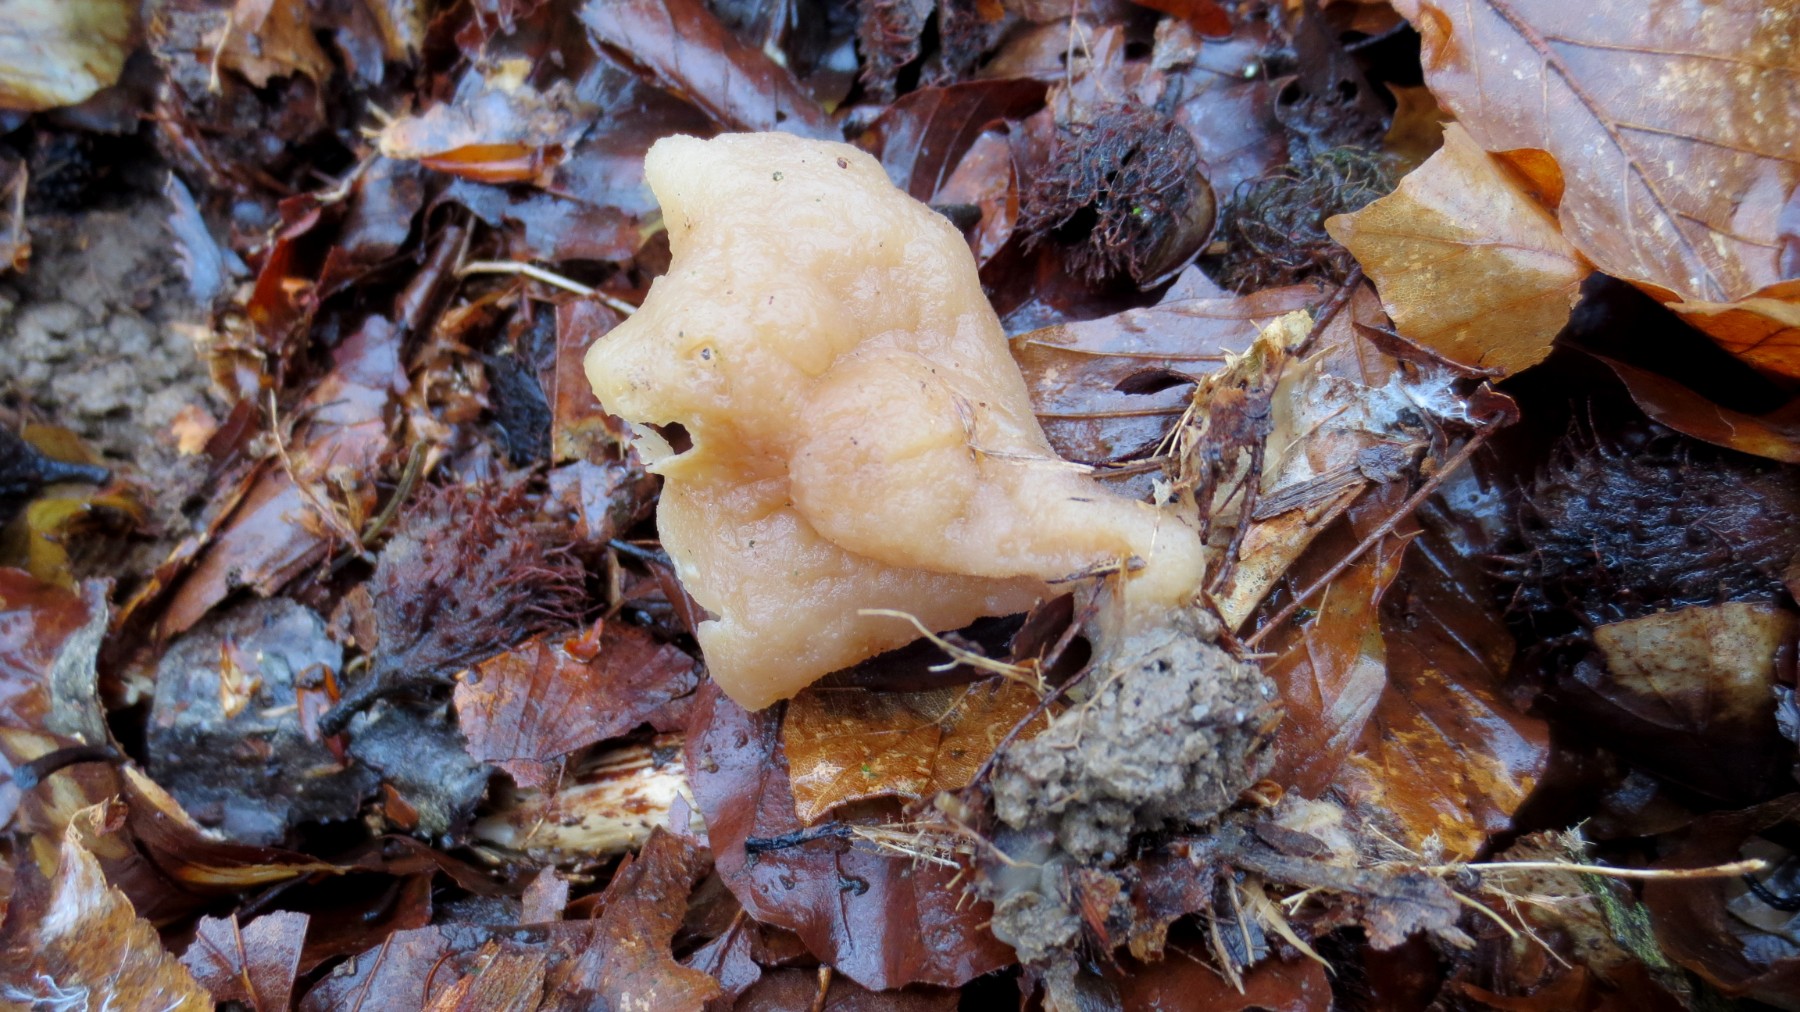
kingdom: Fungi
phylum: Ascomycota
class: Pezizomycetes
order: Pezizales
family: Pezizaceae
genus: Peziza
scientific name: Peziza
